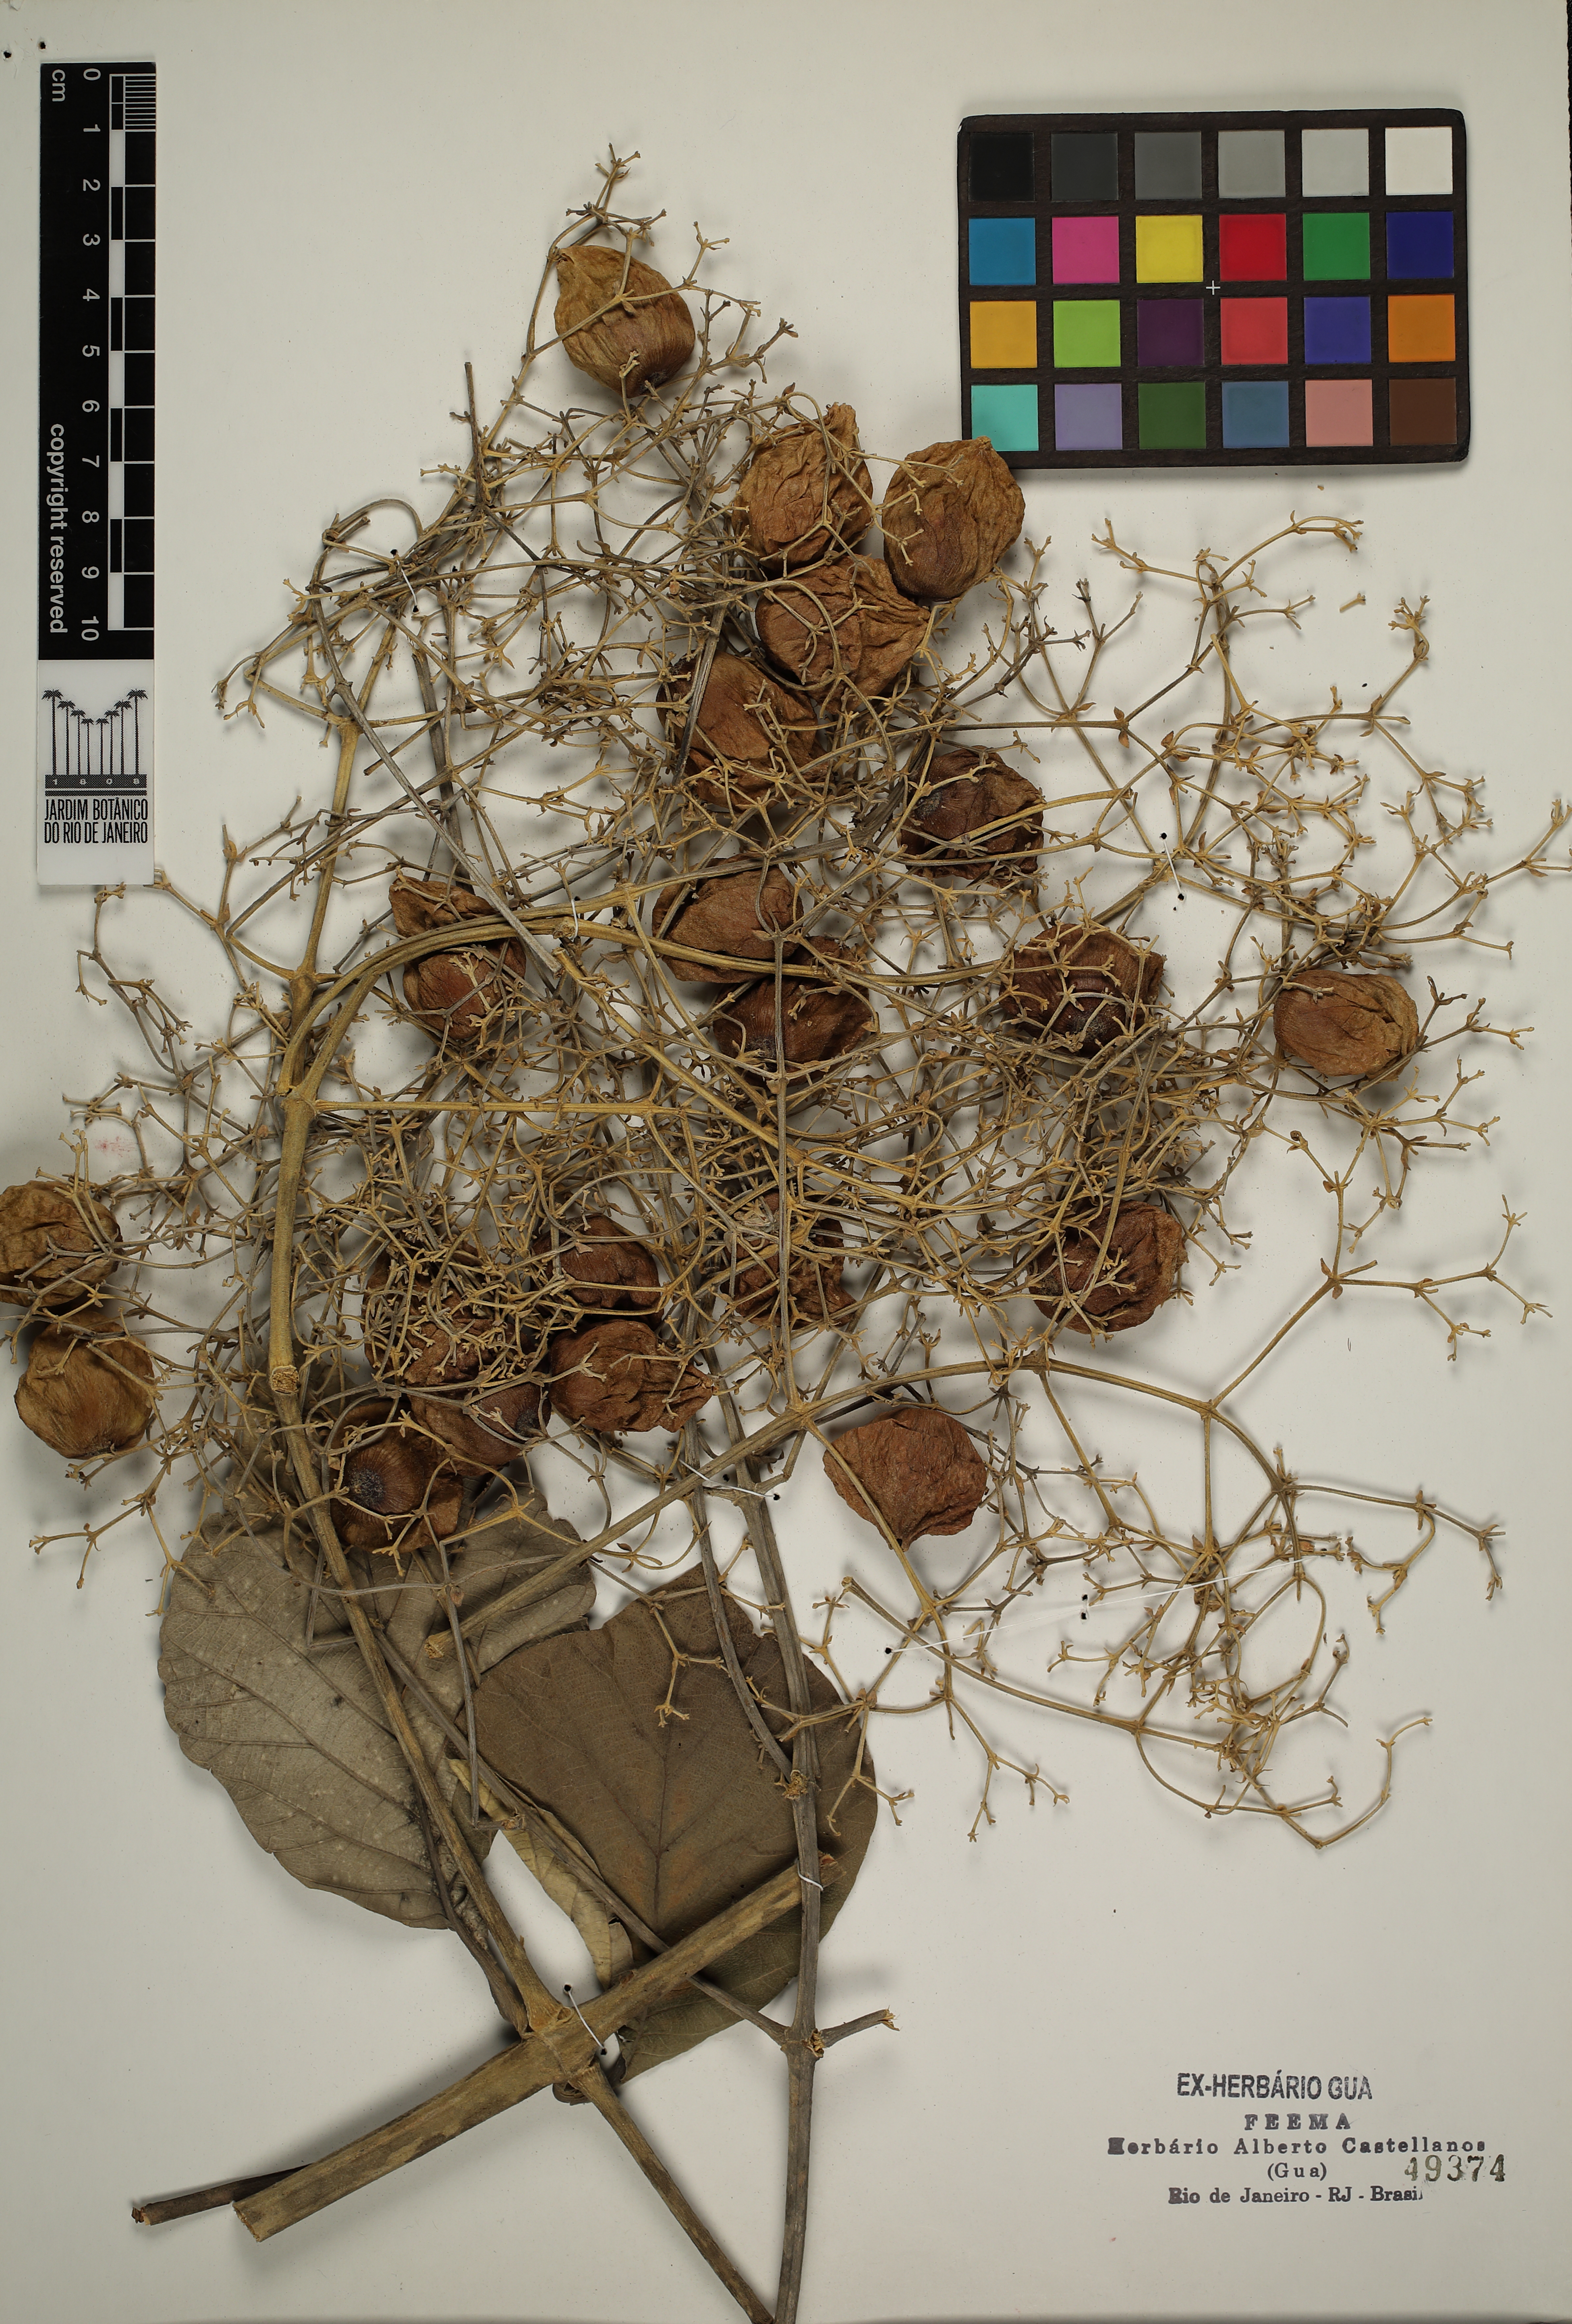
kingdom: Plantae
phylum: Tracheophyta
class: Magnoliopsida
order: Lamiales
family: Lamiaceae
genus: Tectona
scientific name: Tectona grandis
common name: Teak
